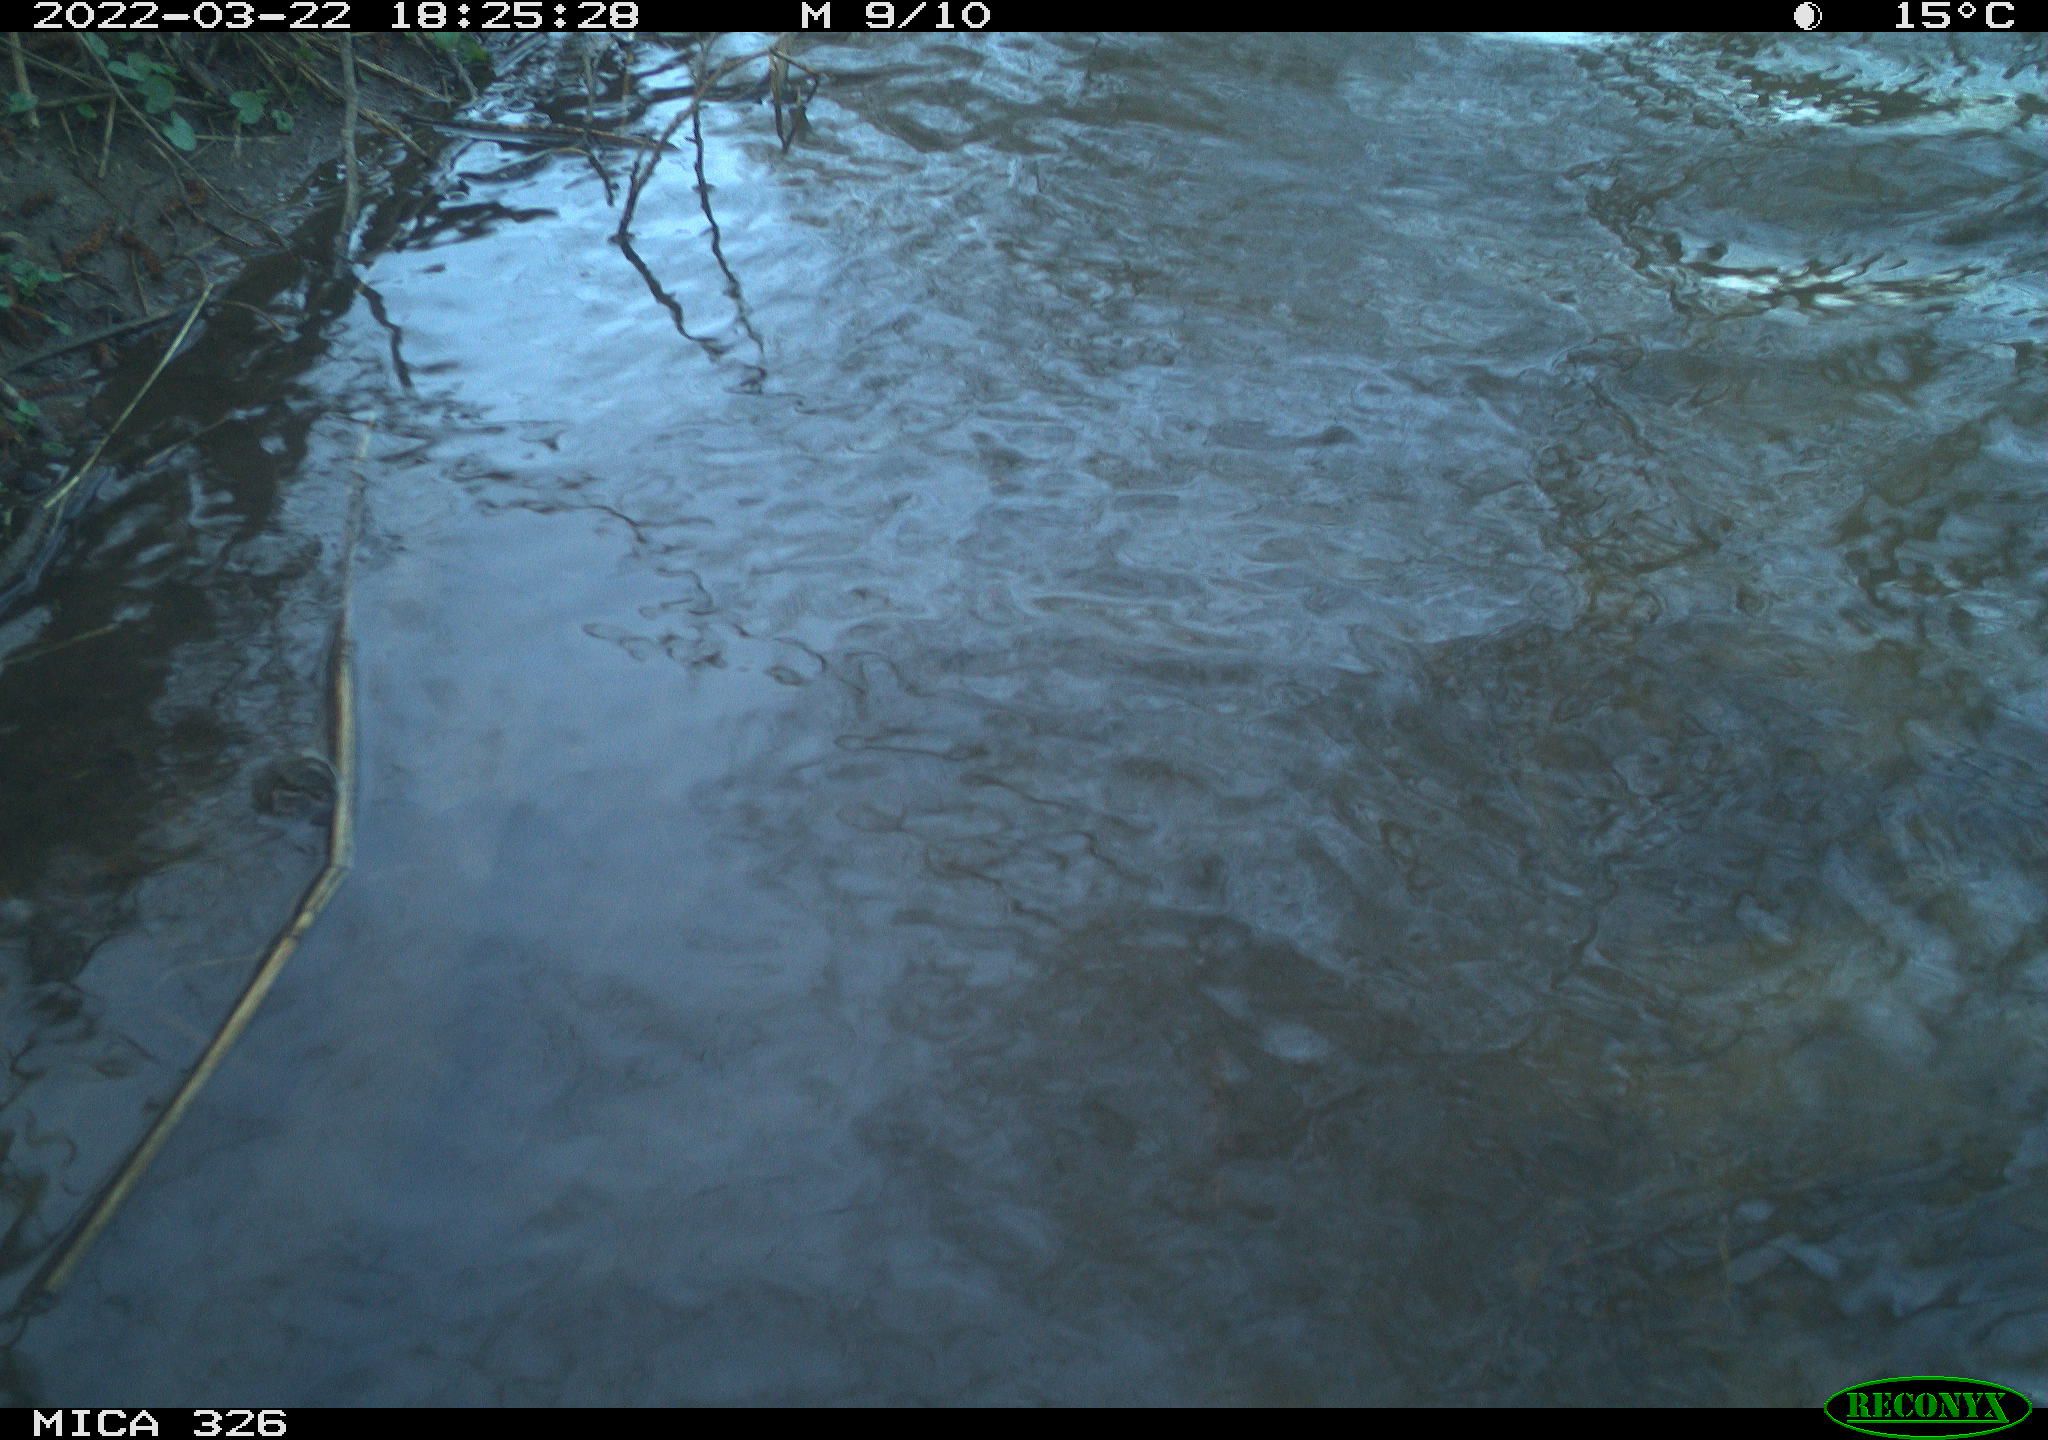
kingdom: Animalia
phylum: Chordata
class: Mammalia
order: Rodentia
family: Cricetidae
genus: Ondatra
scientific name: Ondatra zibethicus
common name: Muskrat
